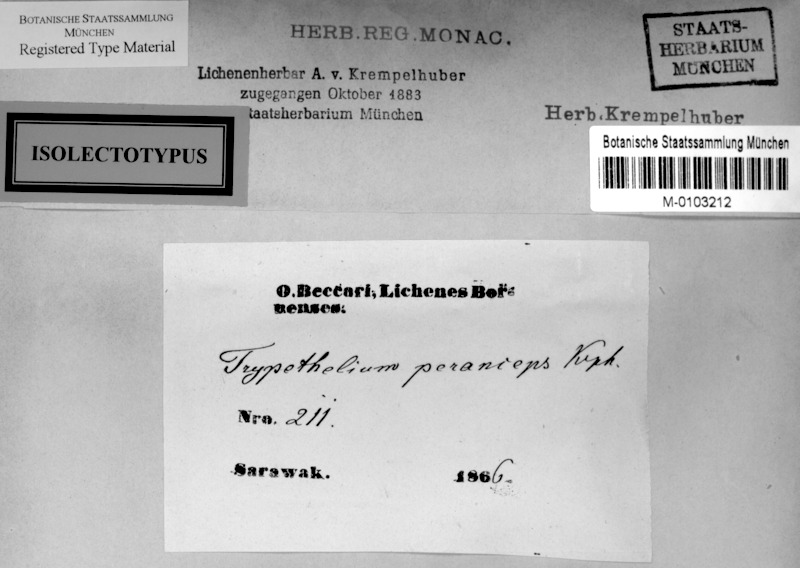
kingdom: Fungi
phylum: Ascomycota
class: Dothideomycetes
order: Trypetheliales
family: Trypetheliaceae
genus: Astrothelium
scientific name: Astrothelium subfuscum
